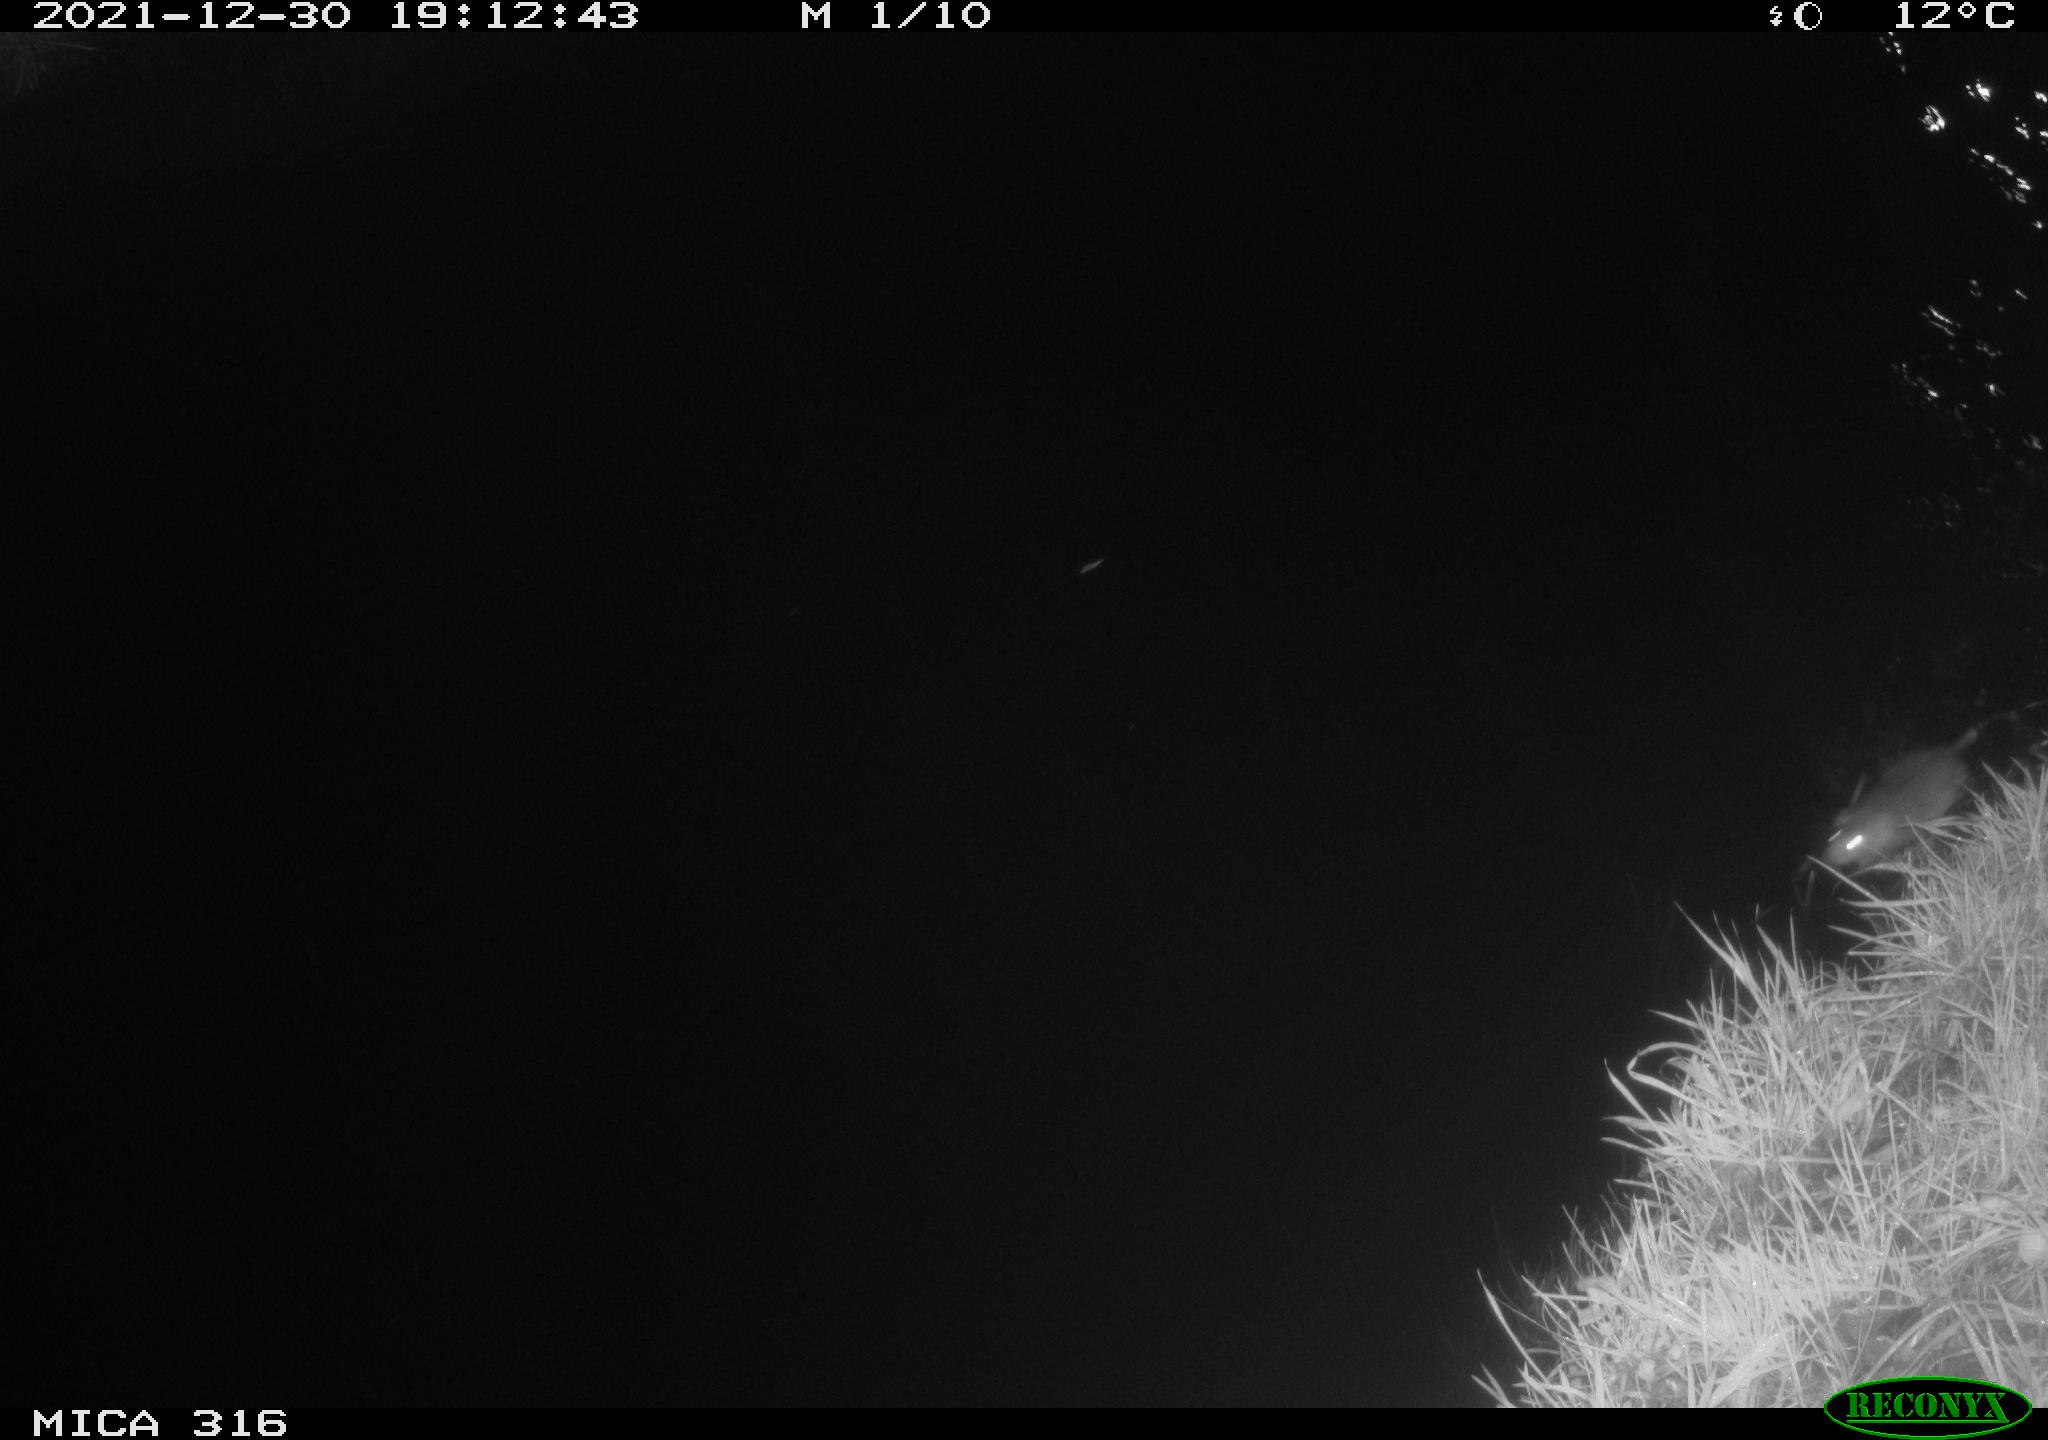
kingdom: Animalia
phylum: Chordata
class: Mammalia
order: Rodentia
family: Muridae
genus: Rattus
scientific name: Rattus norvegicus
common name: Brown rat
